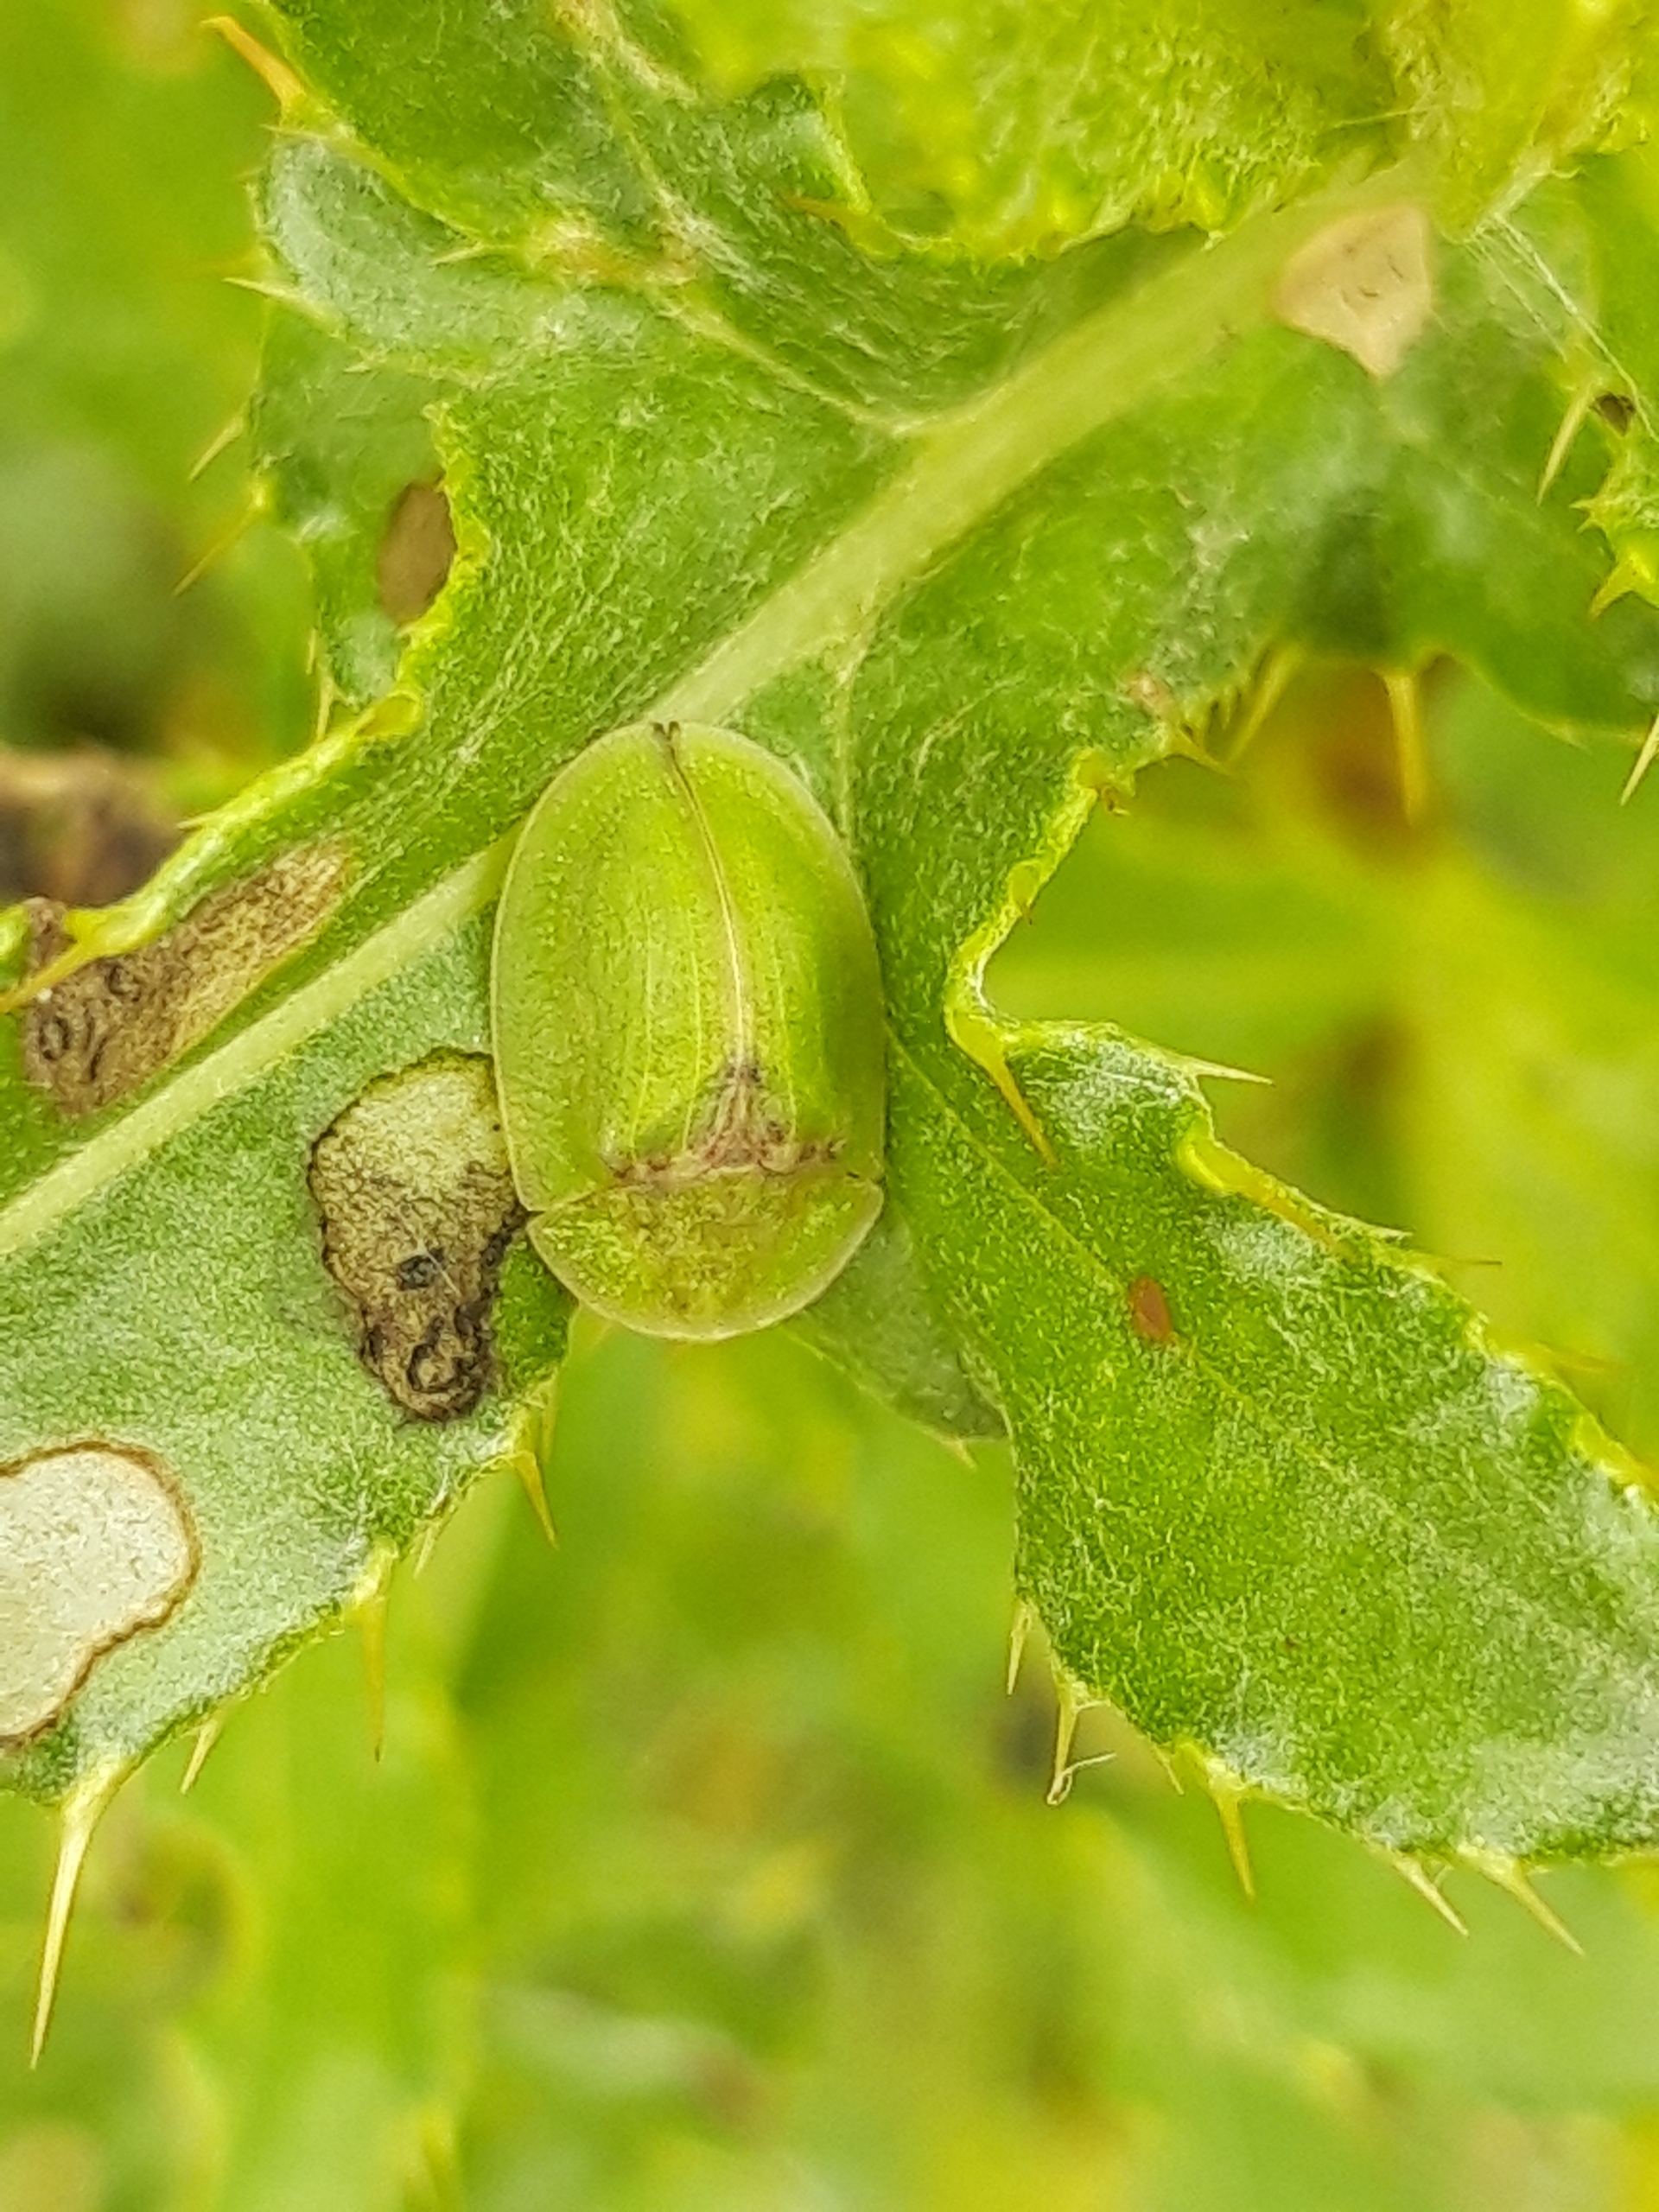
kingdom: Animalia
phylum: Arthropoda
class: Insecta
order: Coleoptera
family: Chrysomelidae
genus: Cassida
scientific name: Cassida rubiginosa
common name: Tidselskjoldbille
